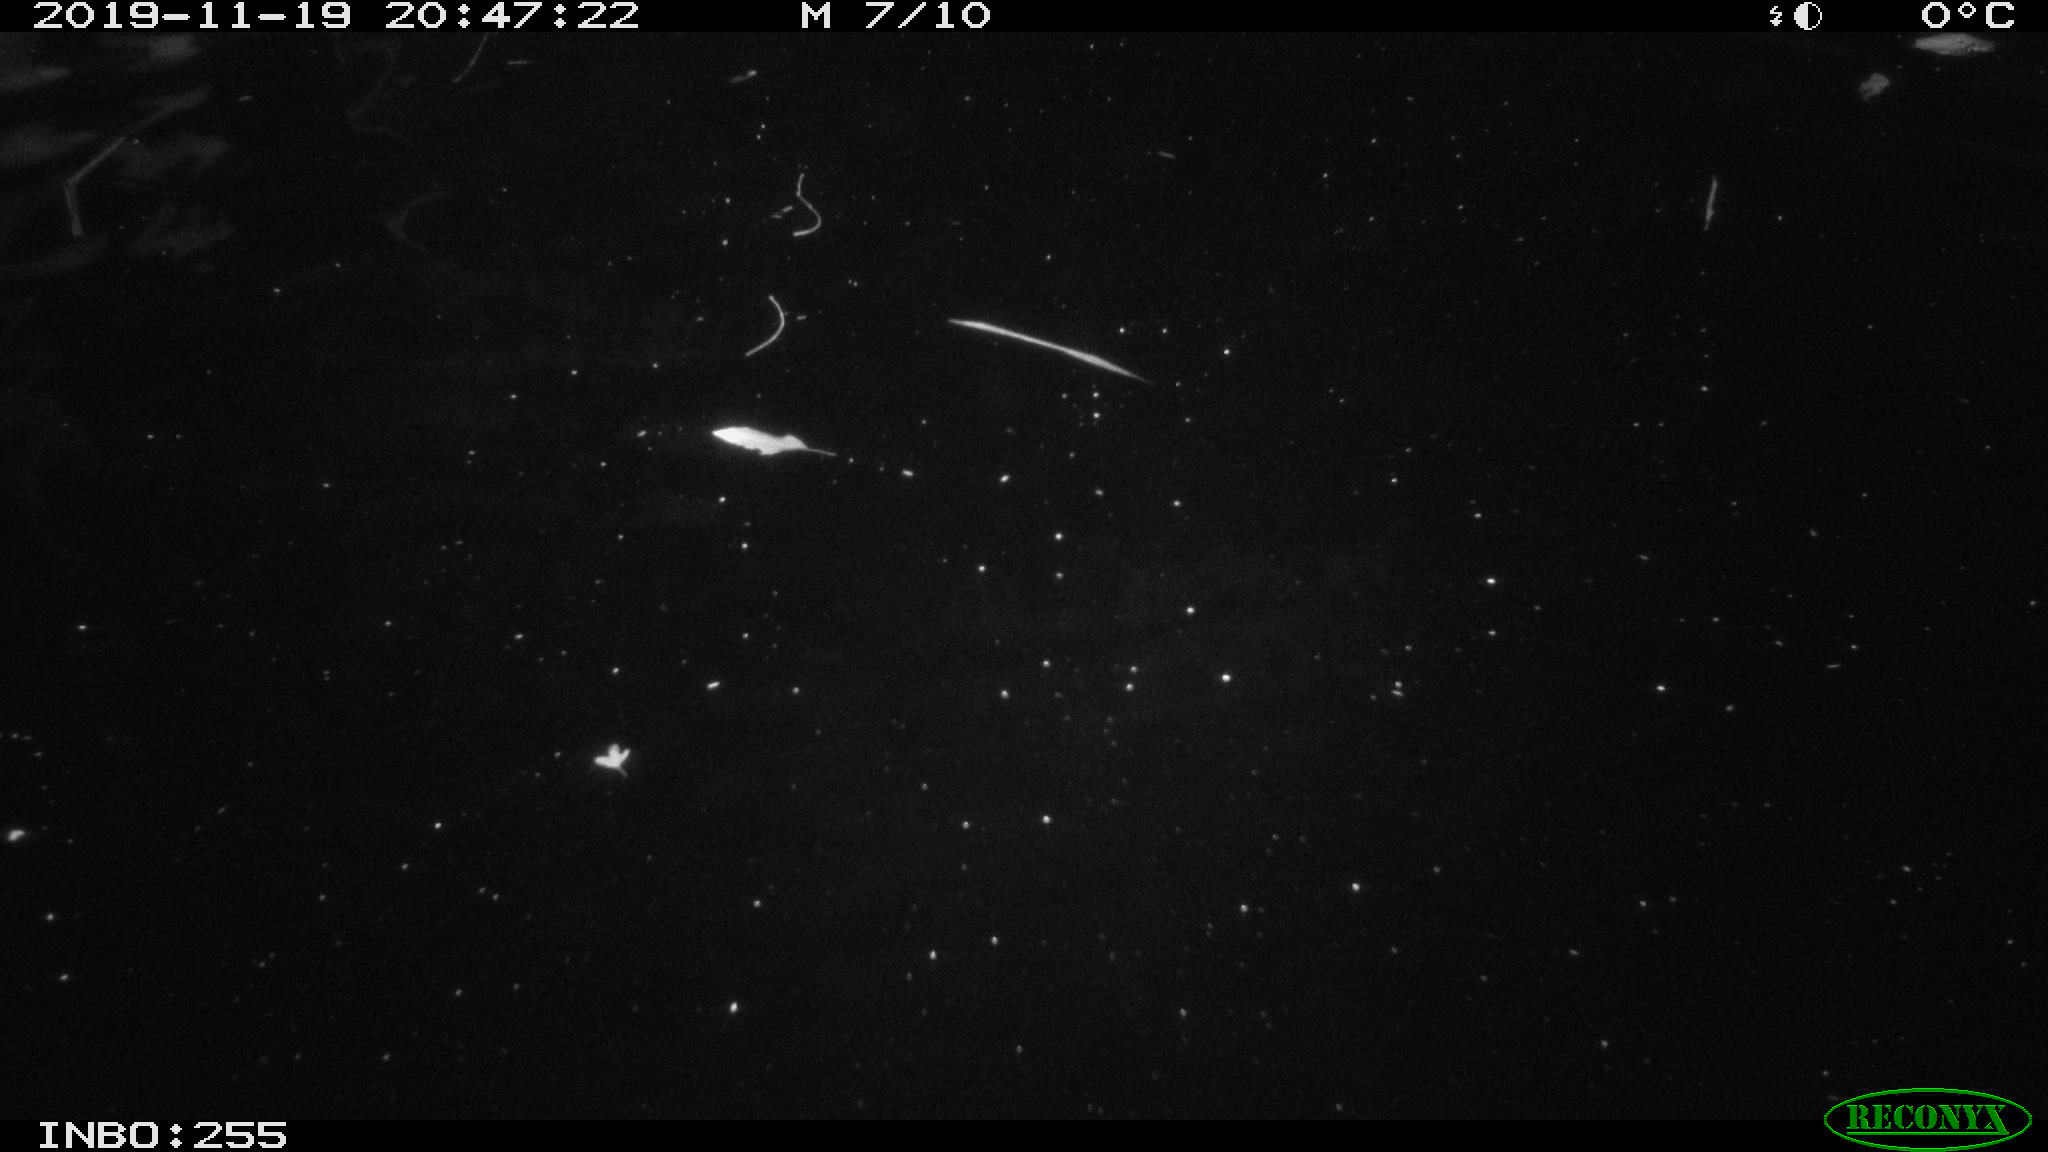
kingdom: Animalia
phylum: Chordata
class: Mammalia
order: Rodentia
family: Cricetidae
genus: Ondatra
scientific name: Ondatra zibethicus
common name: Muskrat
